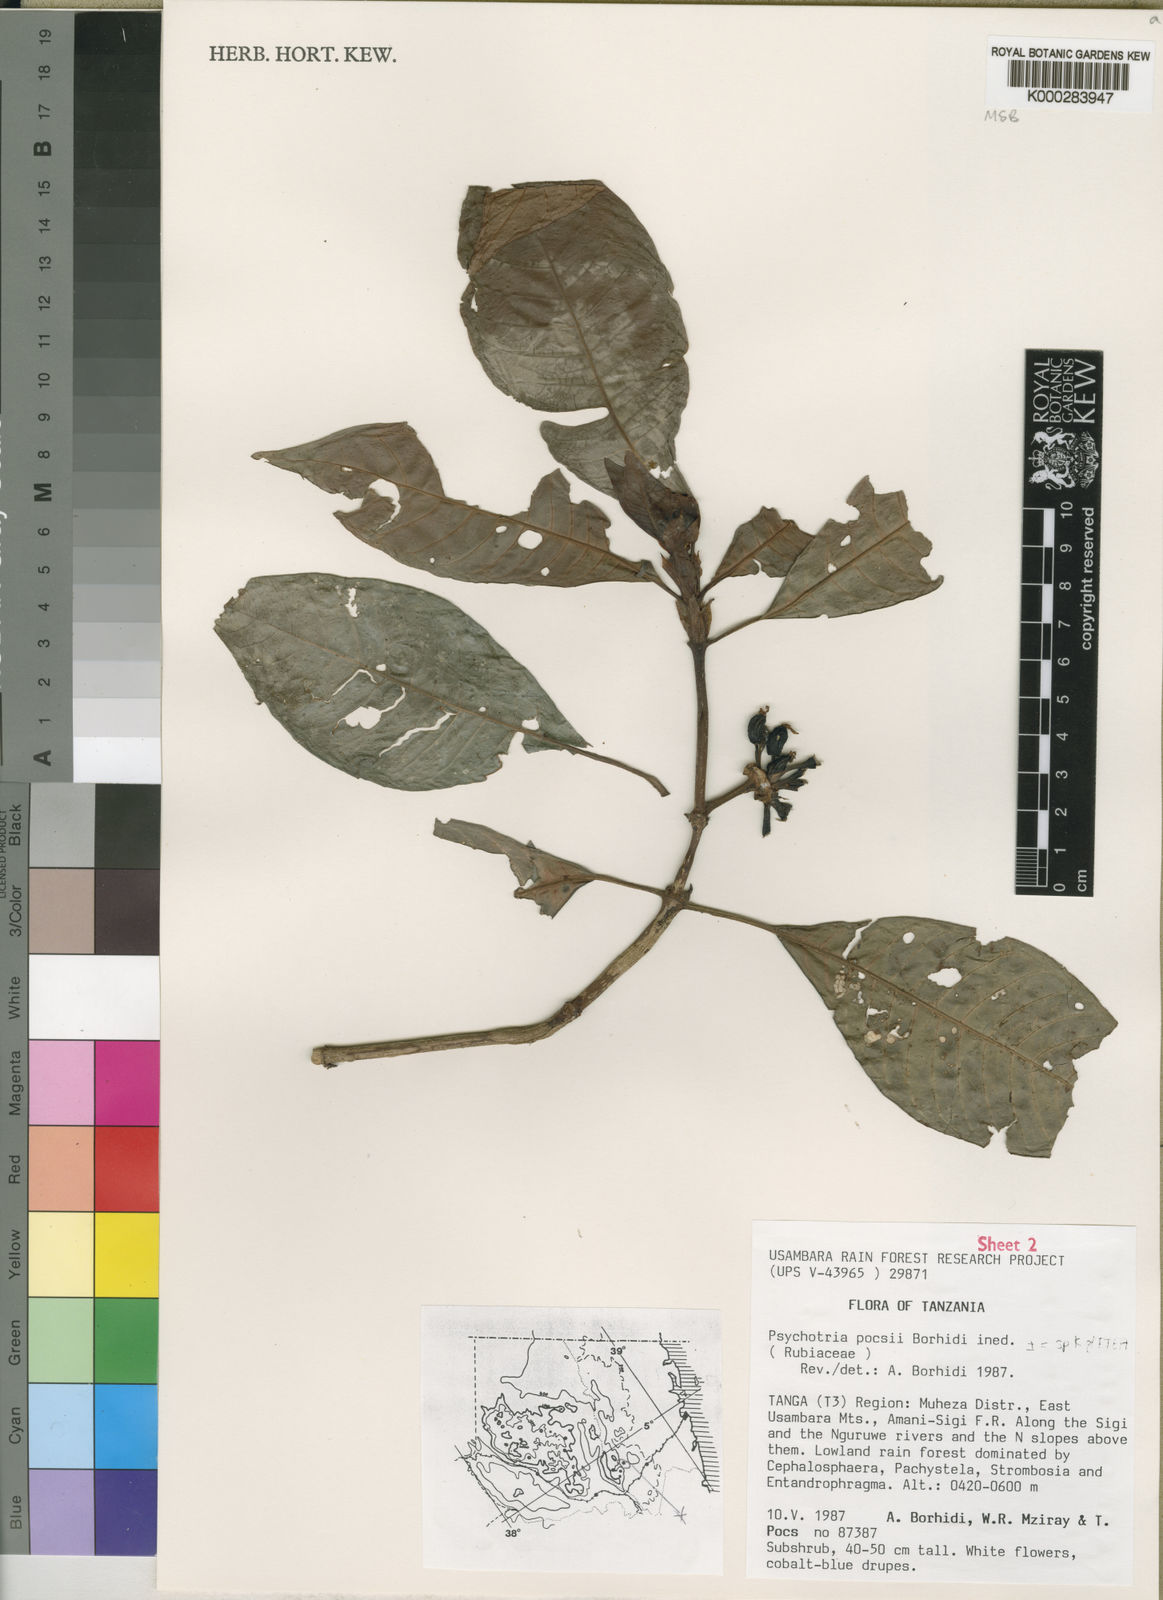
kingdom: Plantae
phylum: Tracheophyta
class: Magnoliopsida
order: Gentianales
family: Rubiaceae
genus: Psychotria
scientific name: Psychotria pocsii
